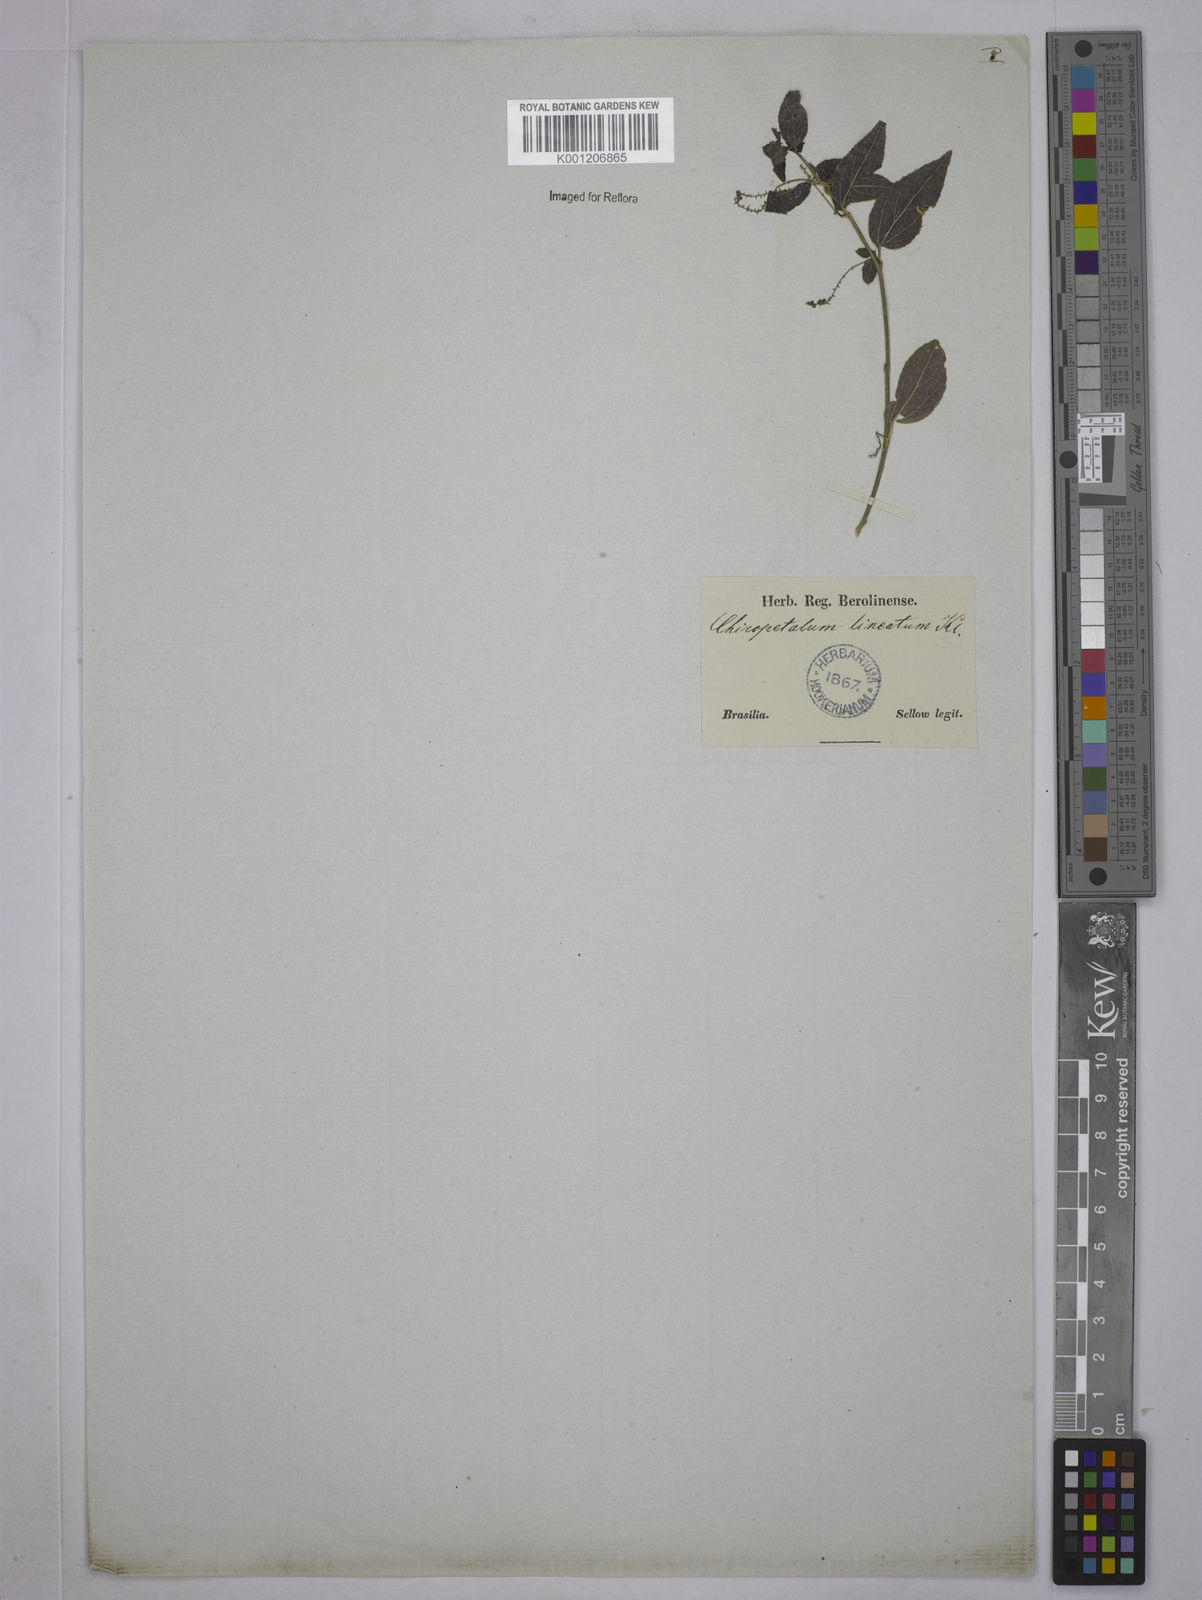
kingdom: Plantae
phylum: Tracheophyta
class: Magnoliopsida
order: Malpighiales
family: Euphorbiaceae
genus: Chiropetalum
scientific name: Chiropetalum tricoccum
